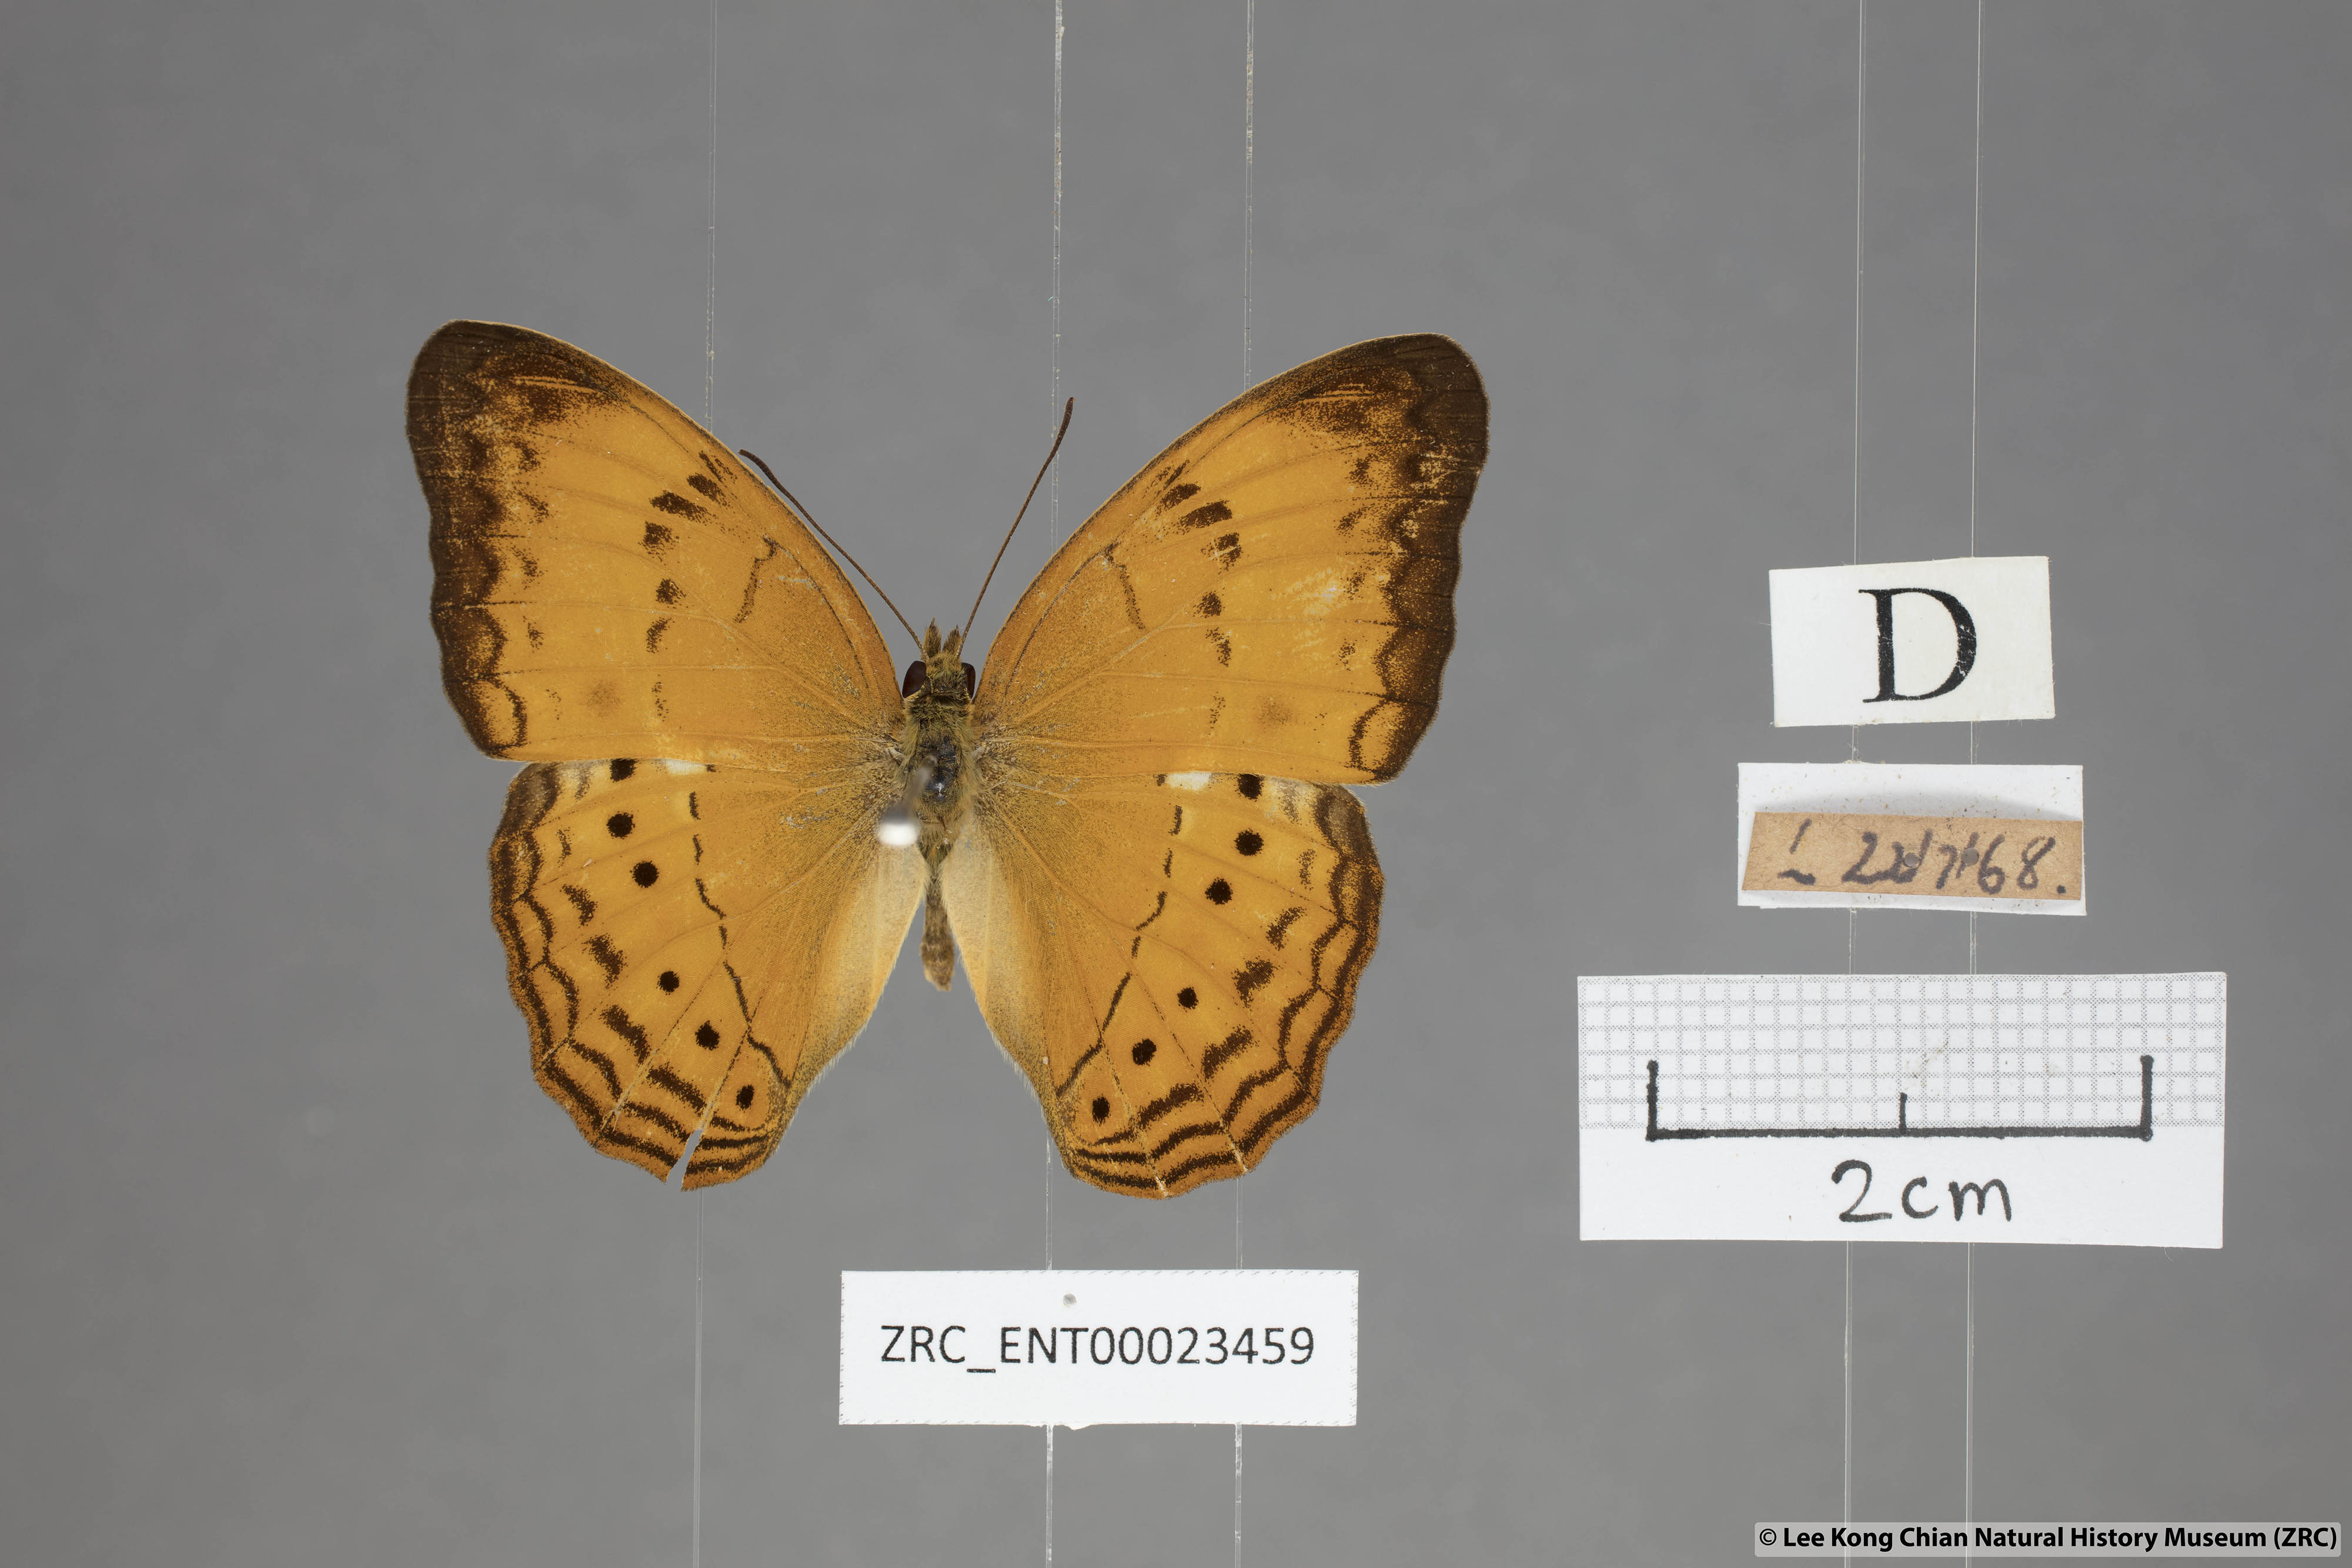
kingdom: Animalia
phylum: Arthropoda
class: Insecta
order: Lepidoptera
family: Nymphalidae
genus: Cirrochroa
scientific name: Cirrochroa surya
